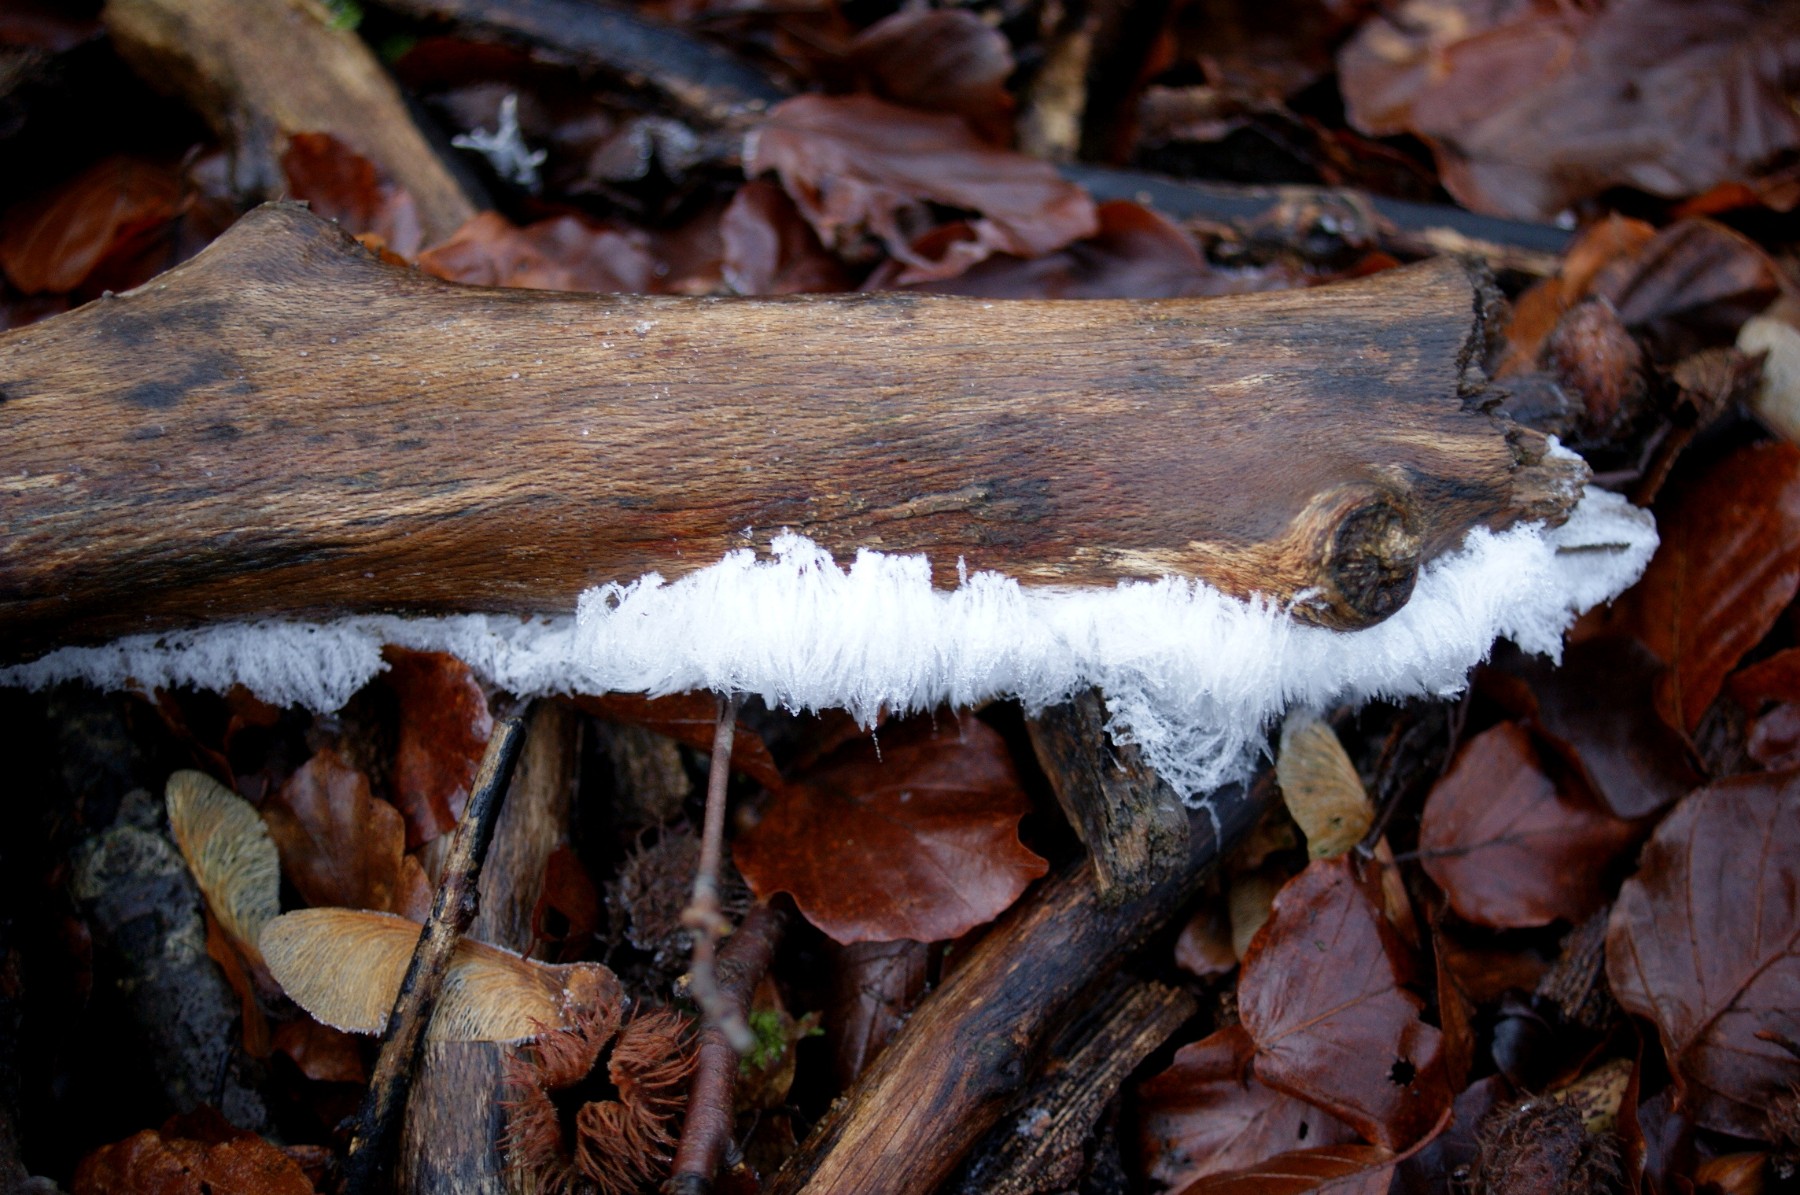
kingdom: Fungi
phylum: Basidiomycota
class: Tremellomycetes
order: Tremellales
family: Exidiaceae
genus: Exidiopsis
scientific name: Exidiopsis effusa
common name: smuk bævrehinde
